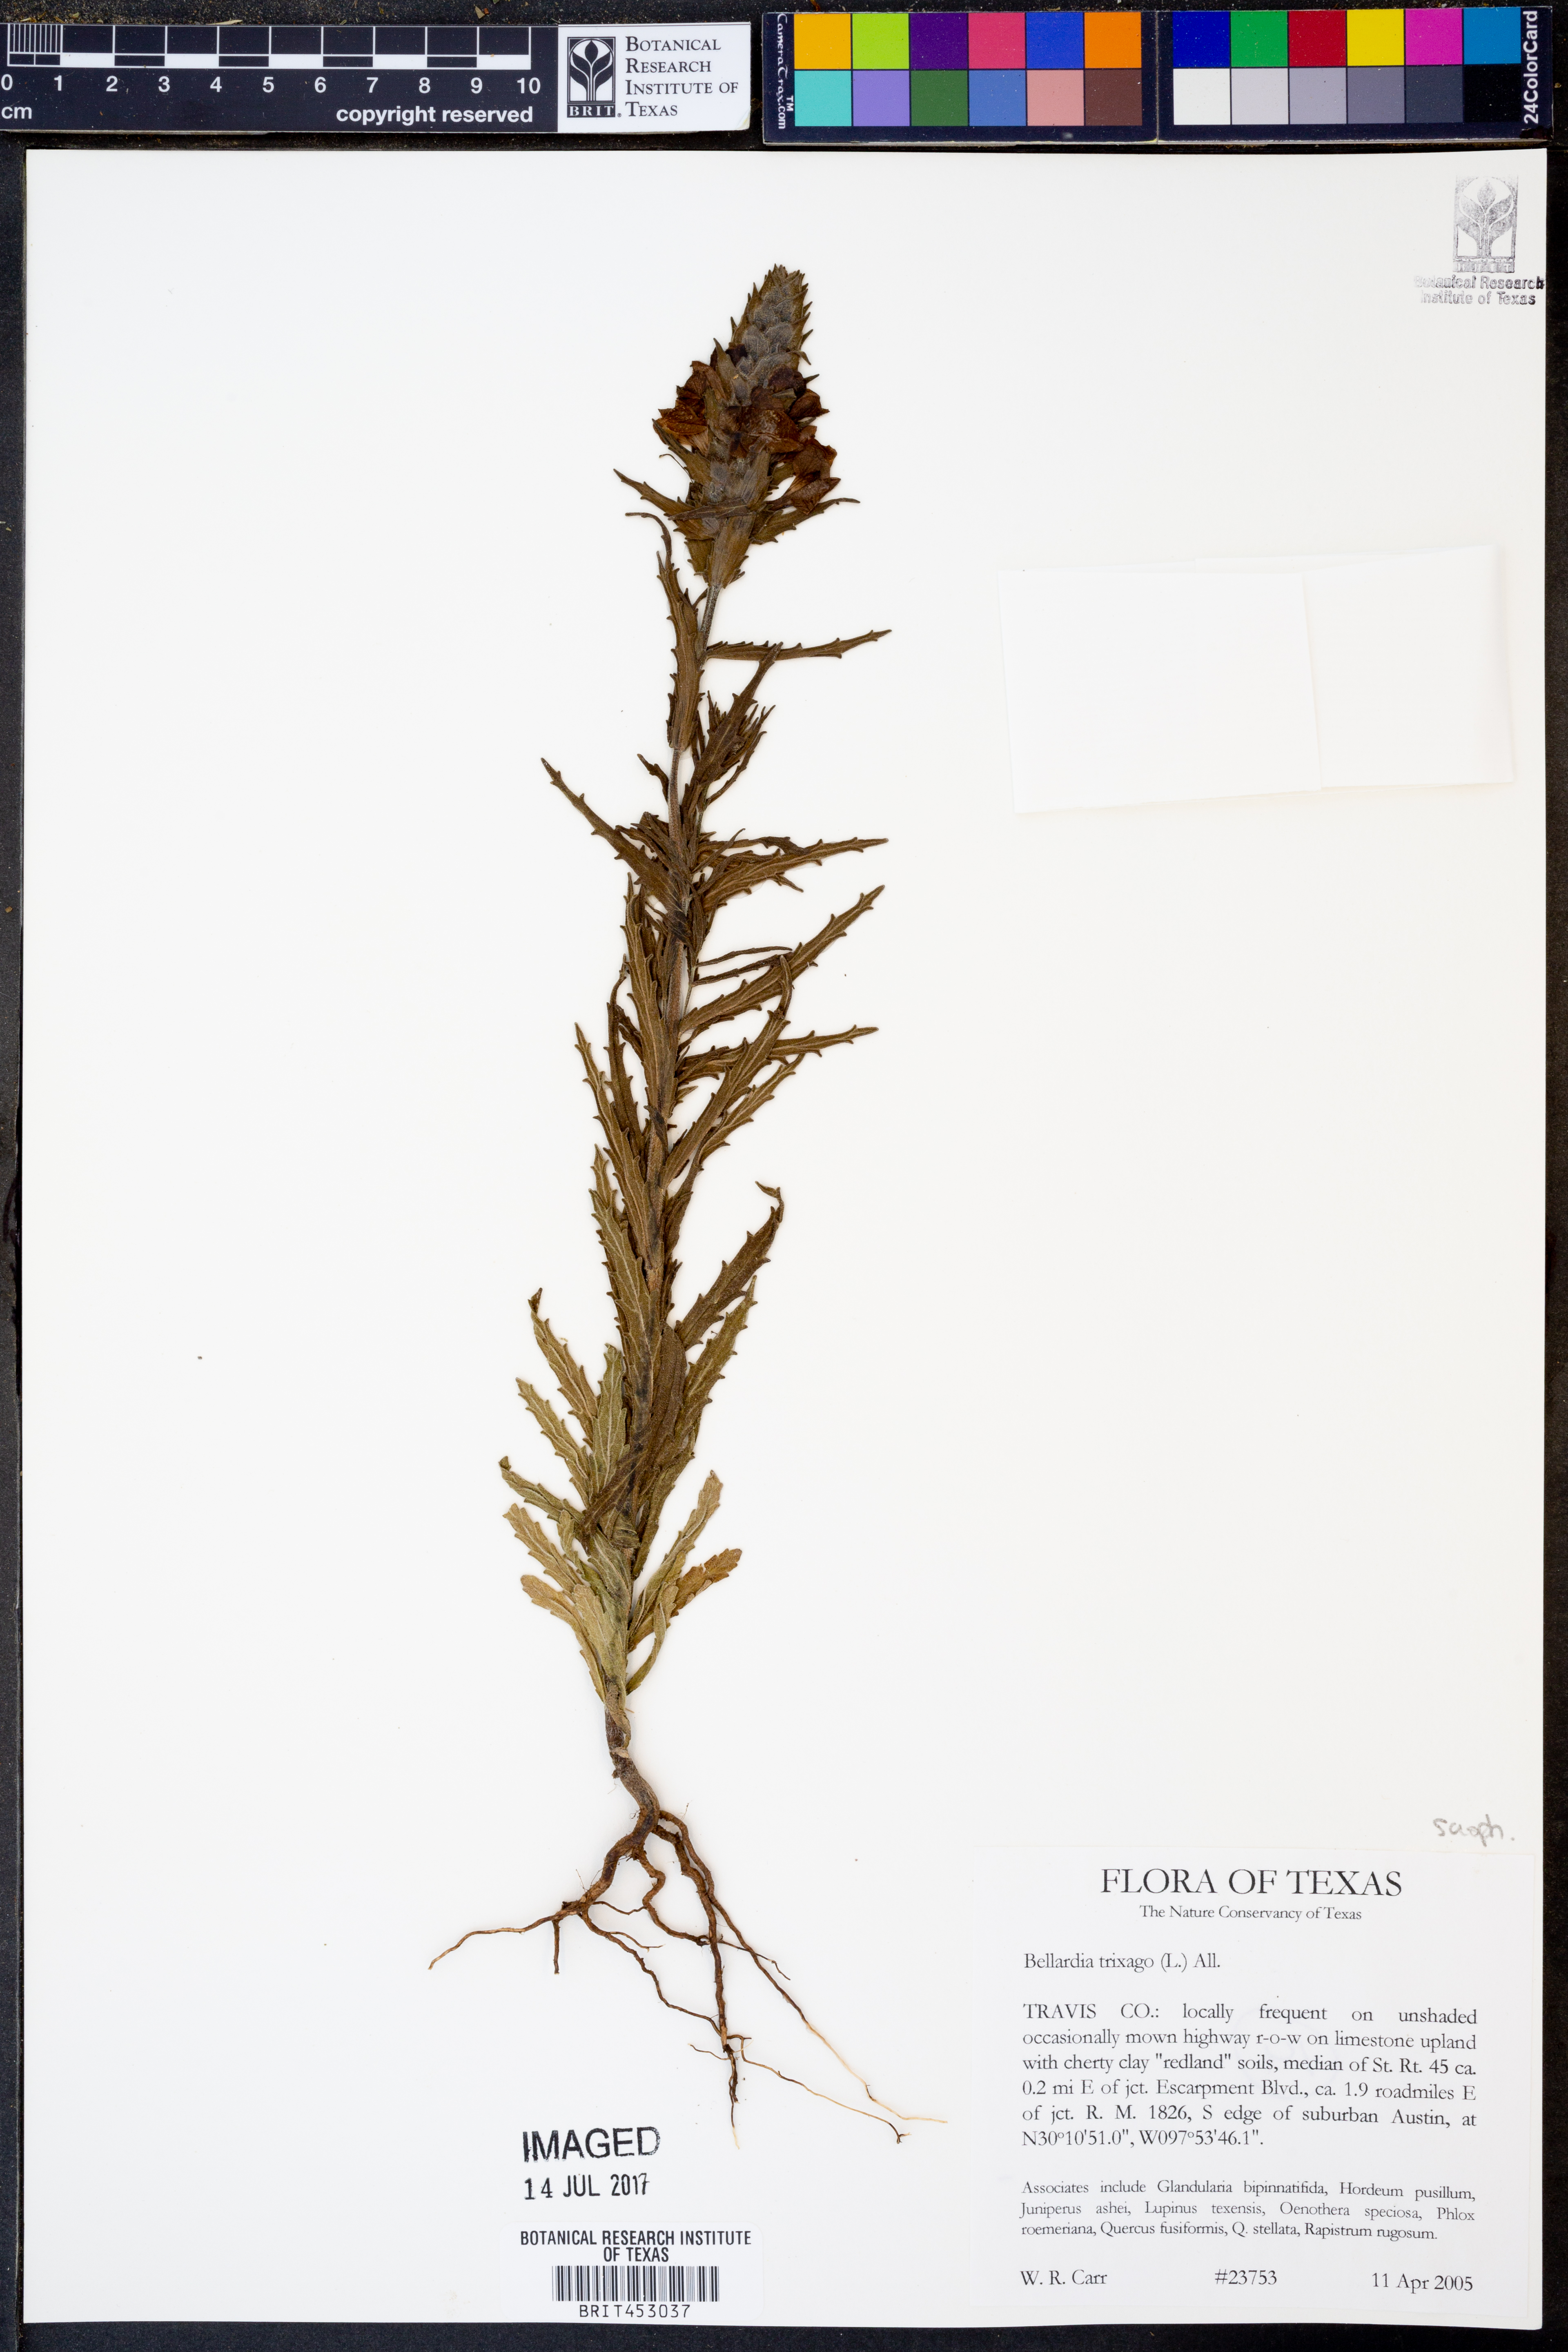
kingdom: Plantae
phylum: Tracheophyta
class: Magnoliopsida
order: Lamiales
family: Orobanchaceae
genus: Bellardia
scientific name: Bellardia trixago
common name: Mediterranean lineseed
